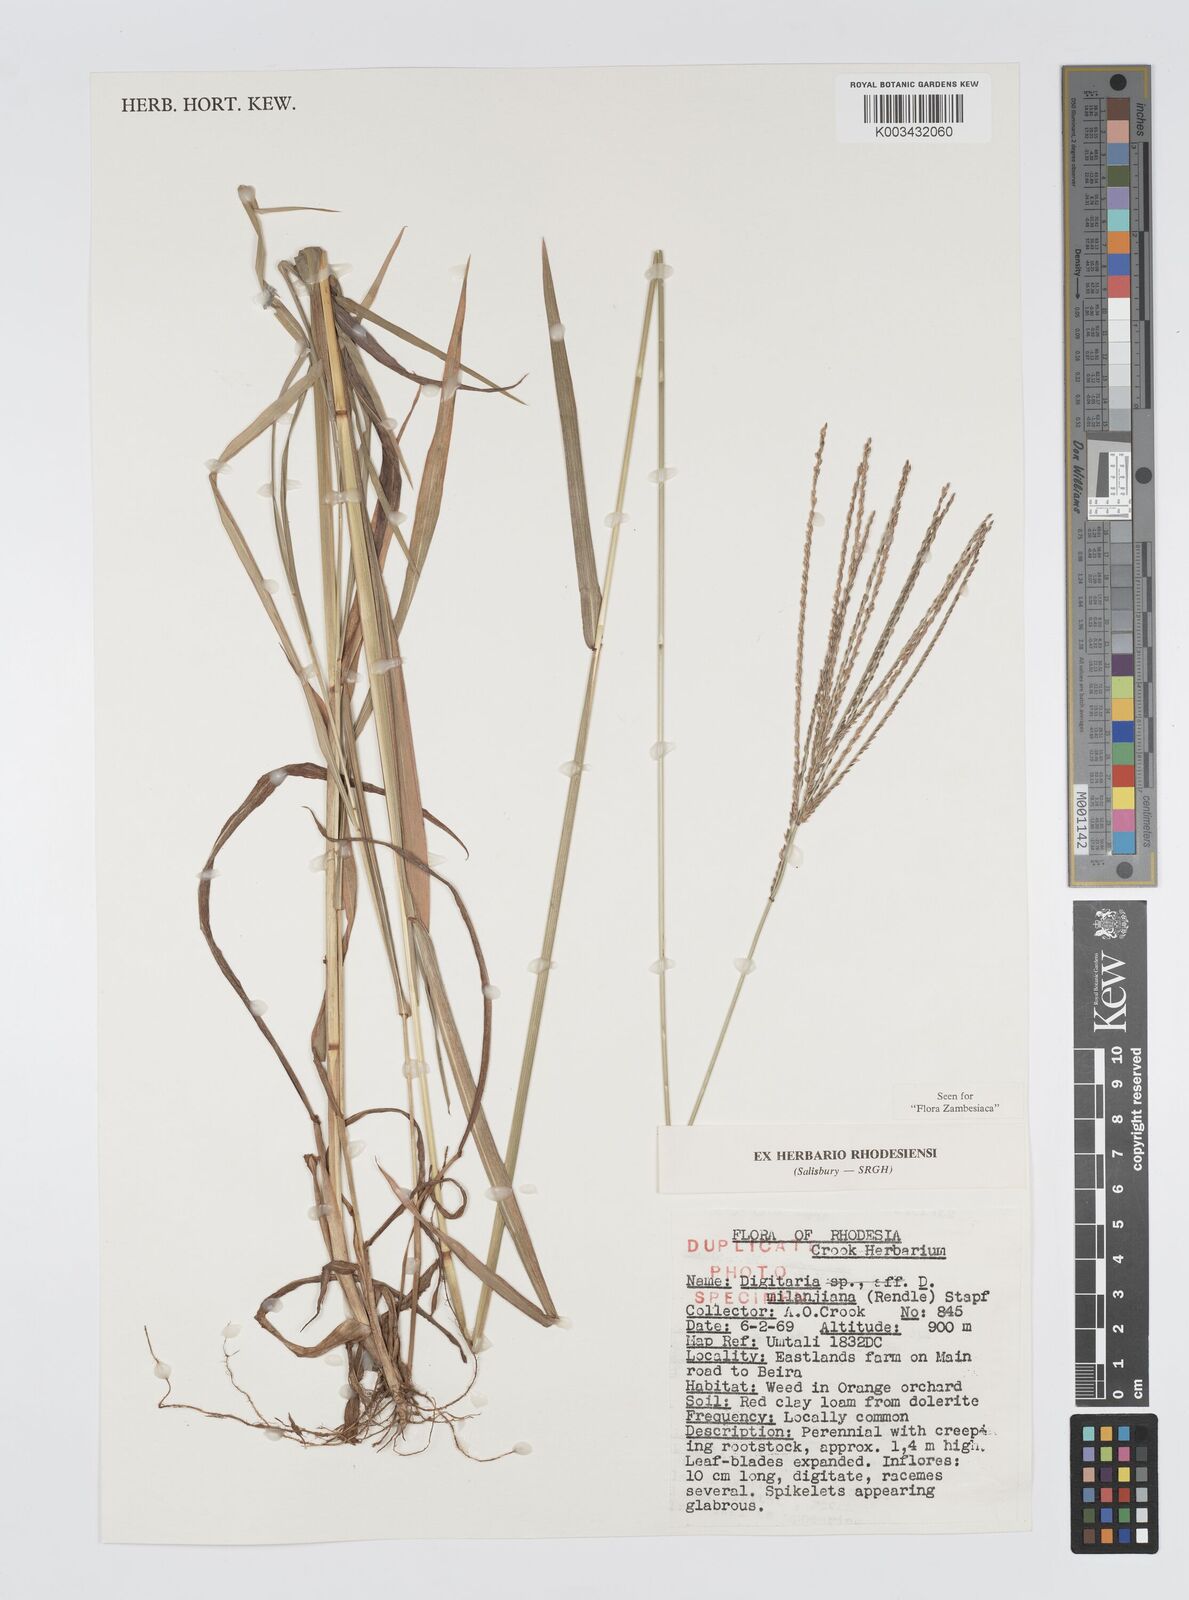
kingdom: Plantae
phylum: Tracheophyta
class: Liliopsida
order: Poales
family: Poaceae
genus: Digitaria
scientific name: Digitaria milanjiana
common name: Madagascar crabgrass
